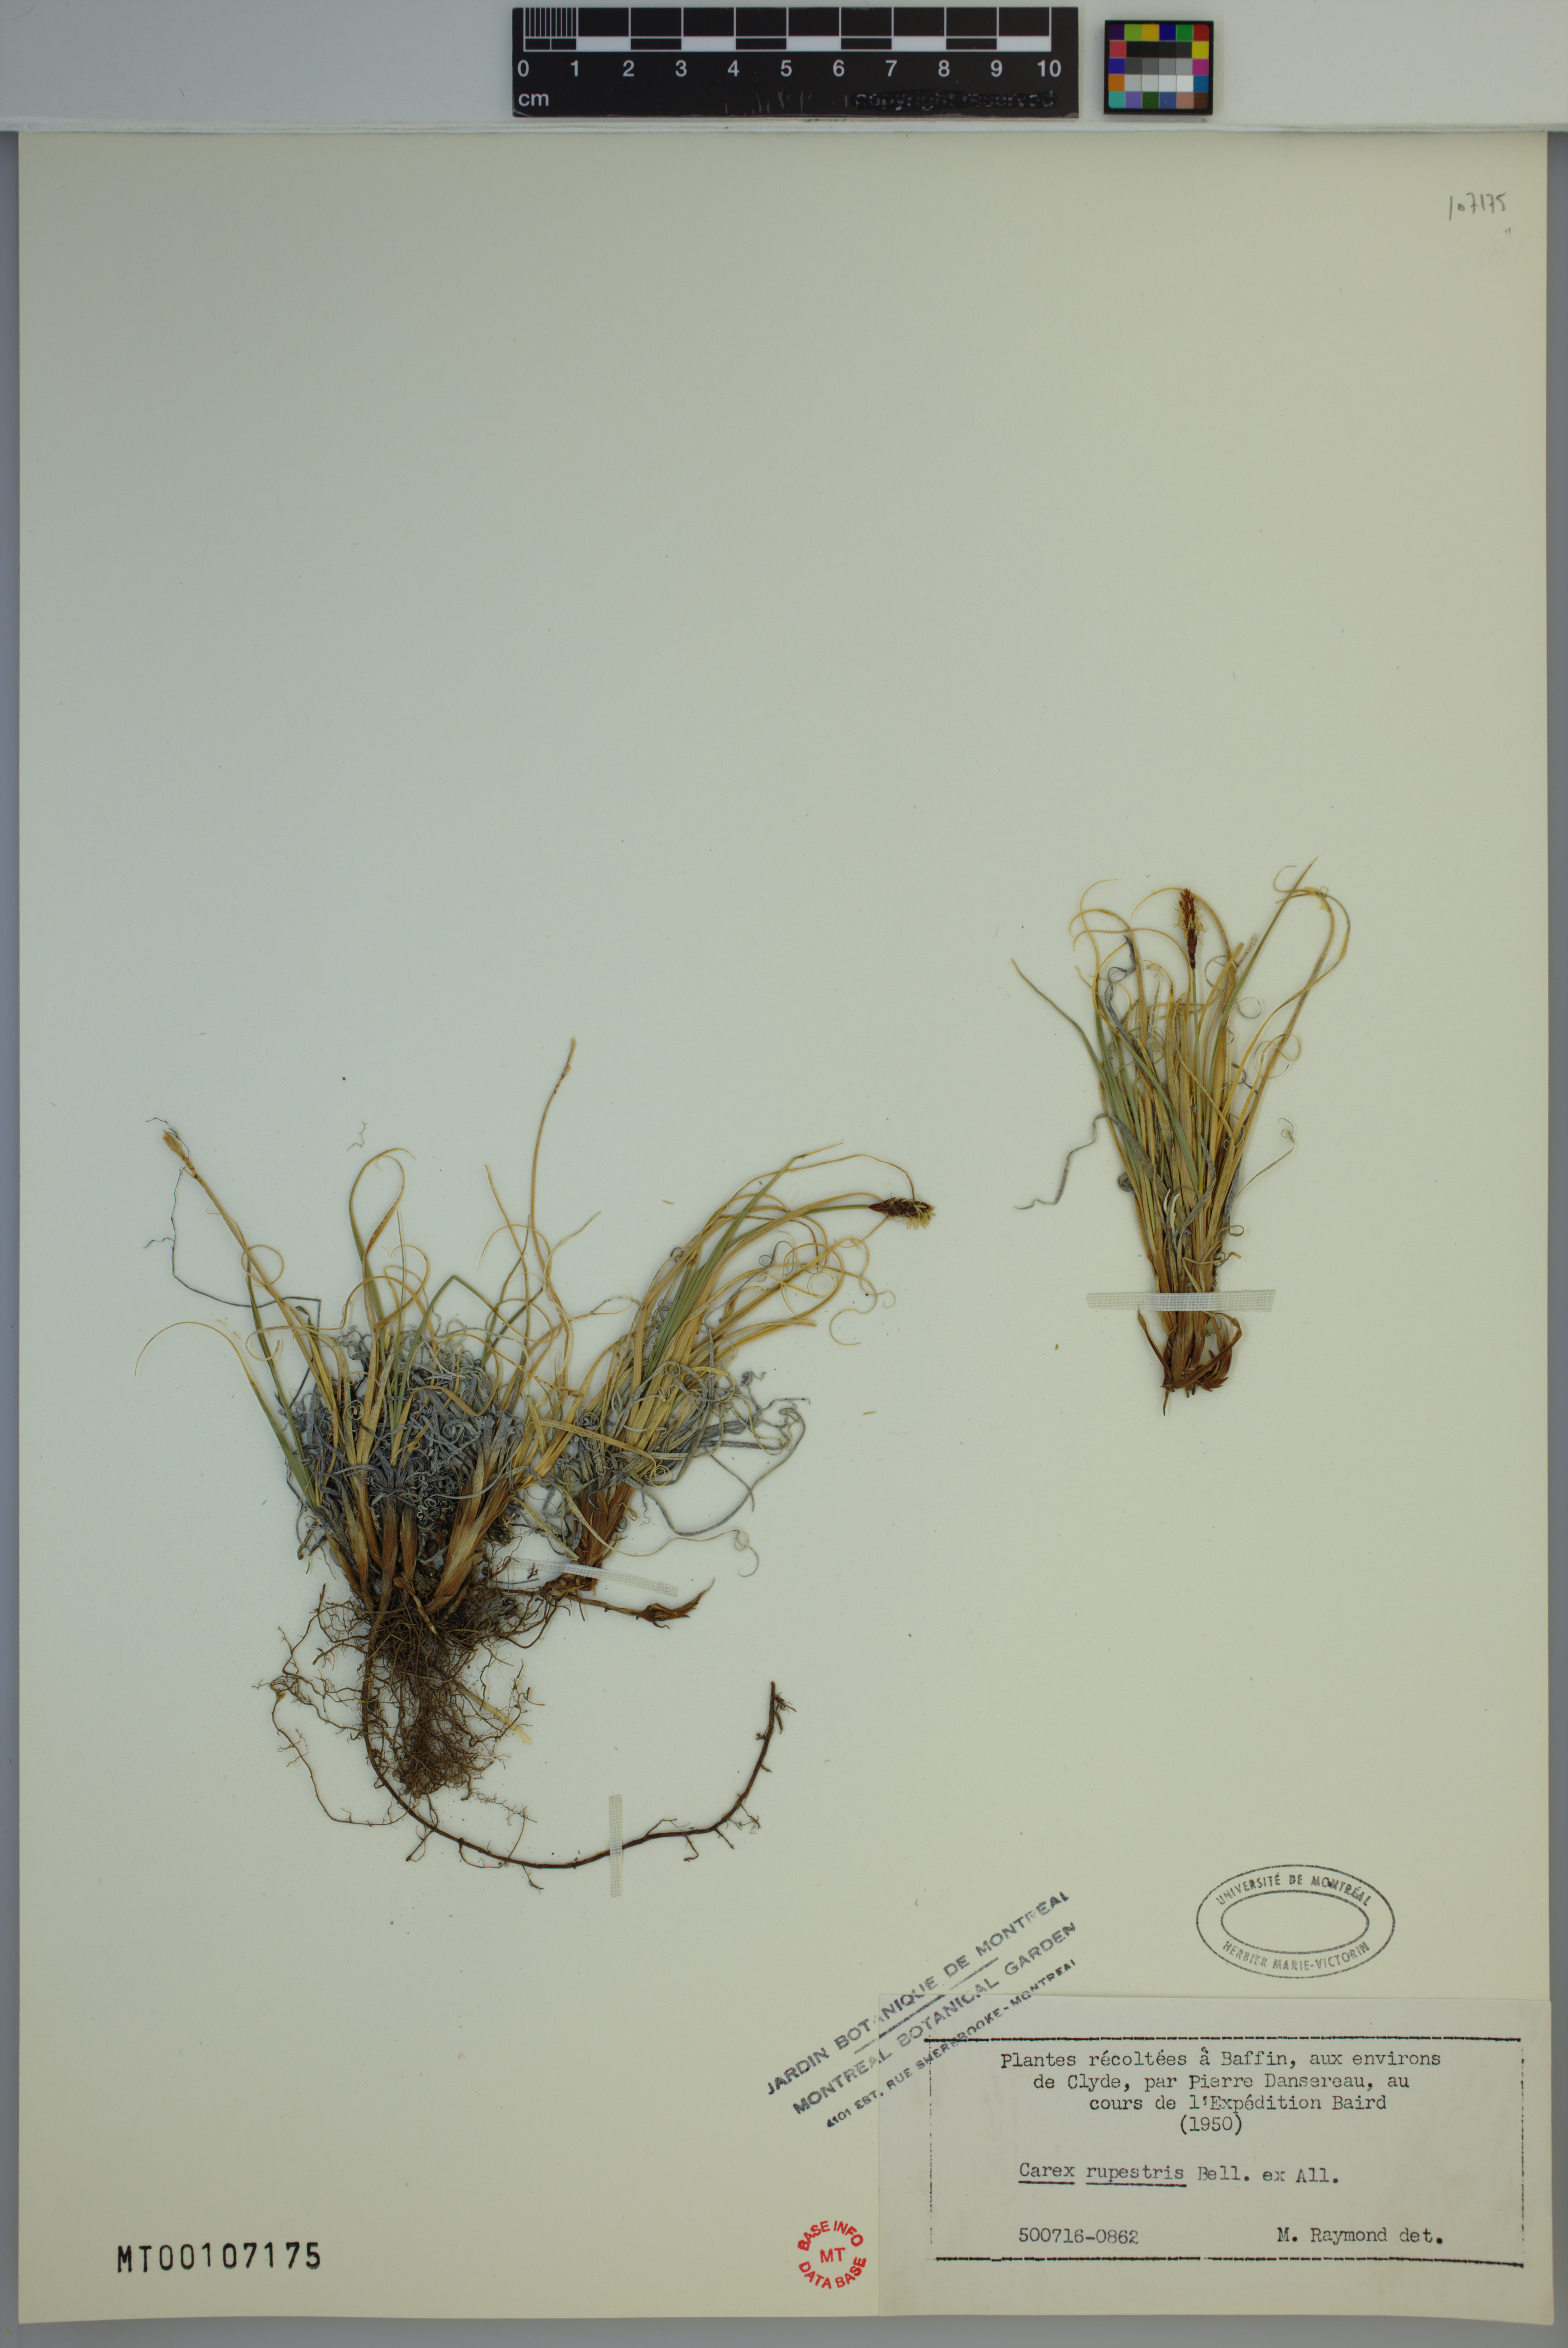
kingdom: Plantae
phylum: Tracheophyta
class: Liliopsida
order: Poales
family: Cyperaceae
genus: Carex
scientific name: Carex rupestris
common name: Rock sedge
